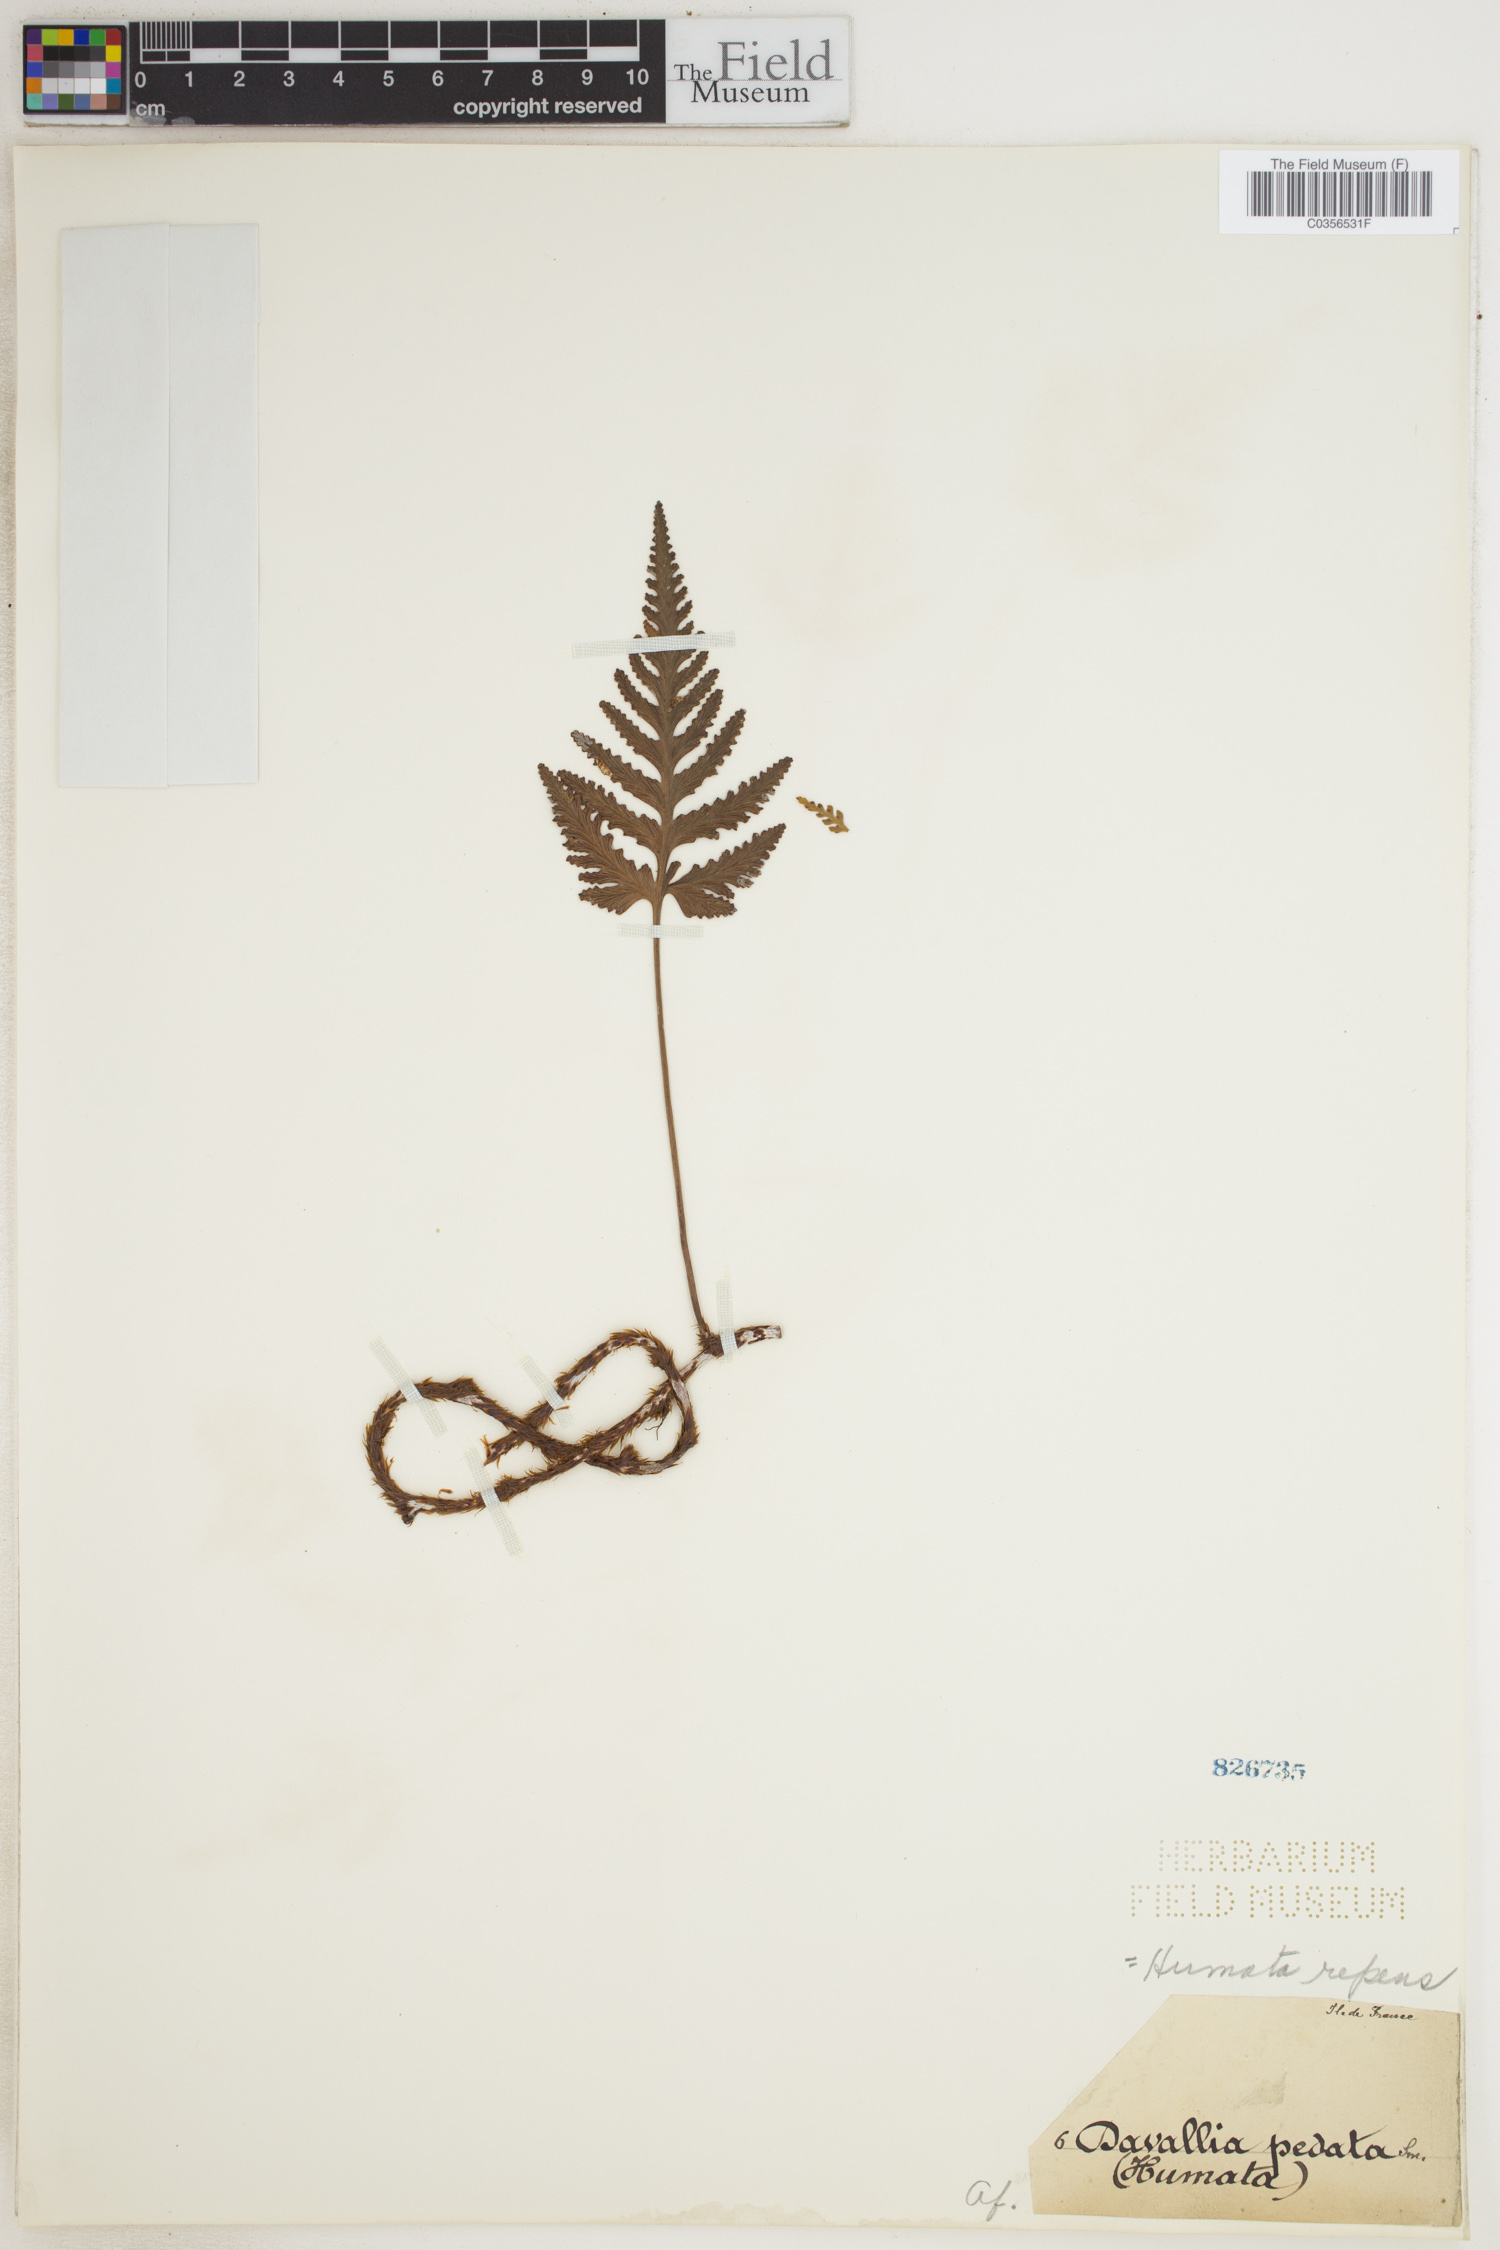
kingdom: Plantae
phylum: Tracheophyta
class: Polypodiopsida
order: Polypodiales
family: Davalliaceae
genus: Davallia
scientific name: Davallia repens
